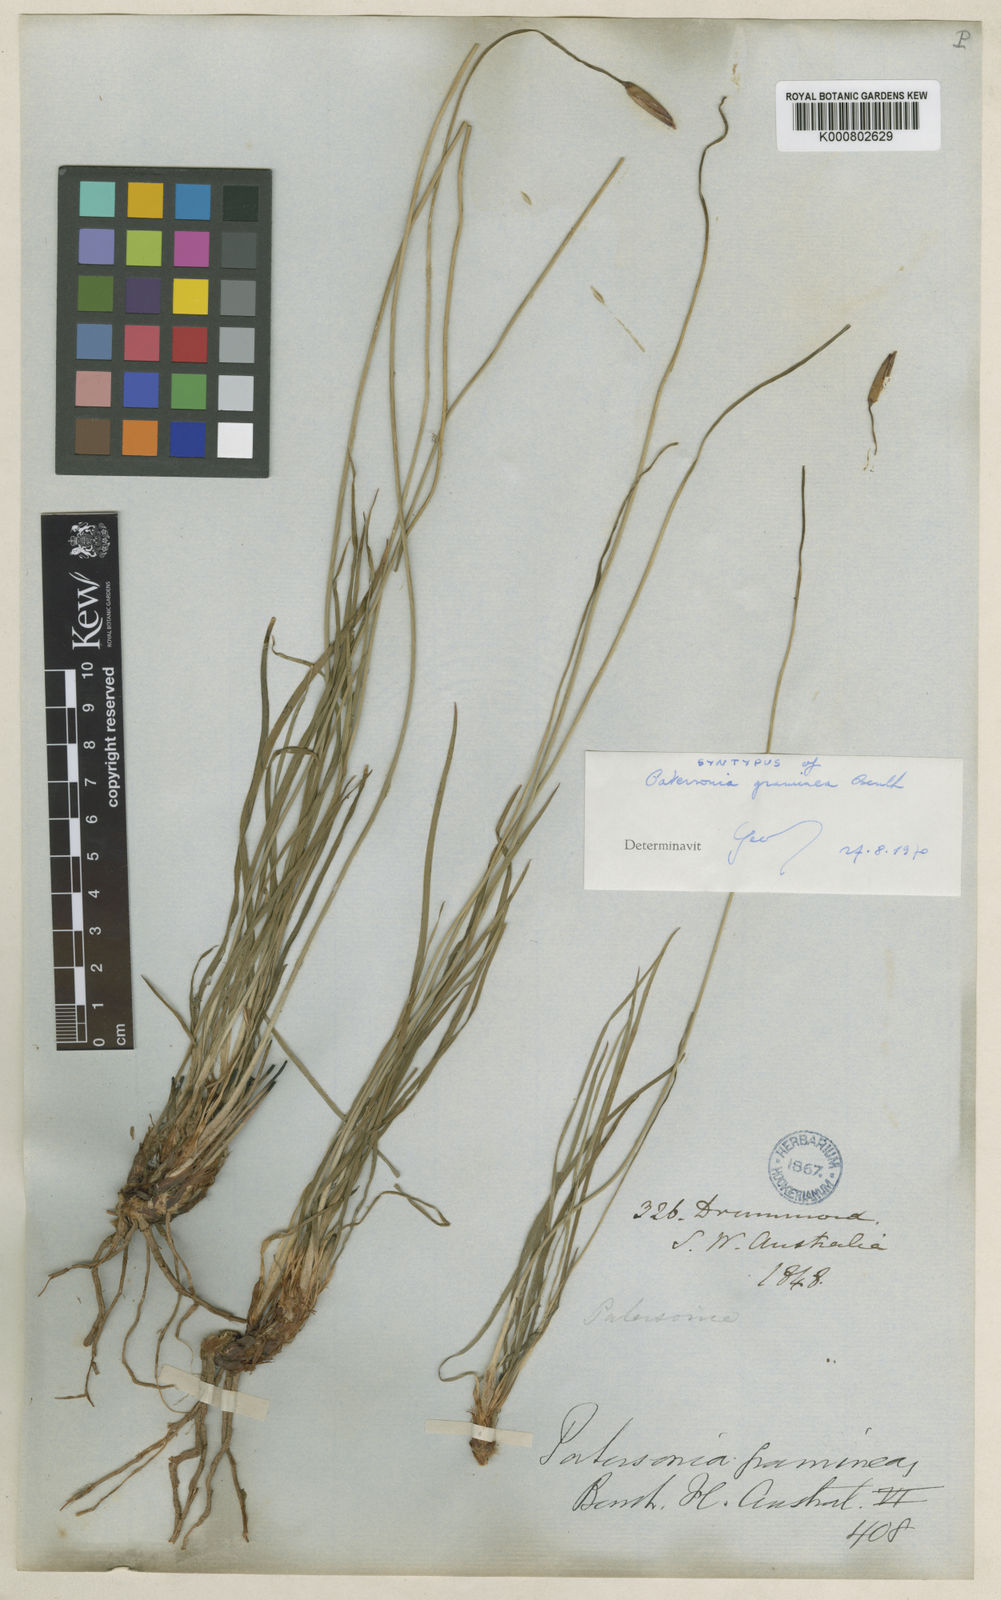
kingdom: Plantae
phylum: Tracheophyta
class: Liliopsida
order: Asparagales
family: Iridaceae
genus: Patersonia
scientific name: Patersonia graminea
